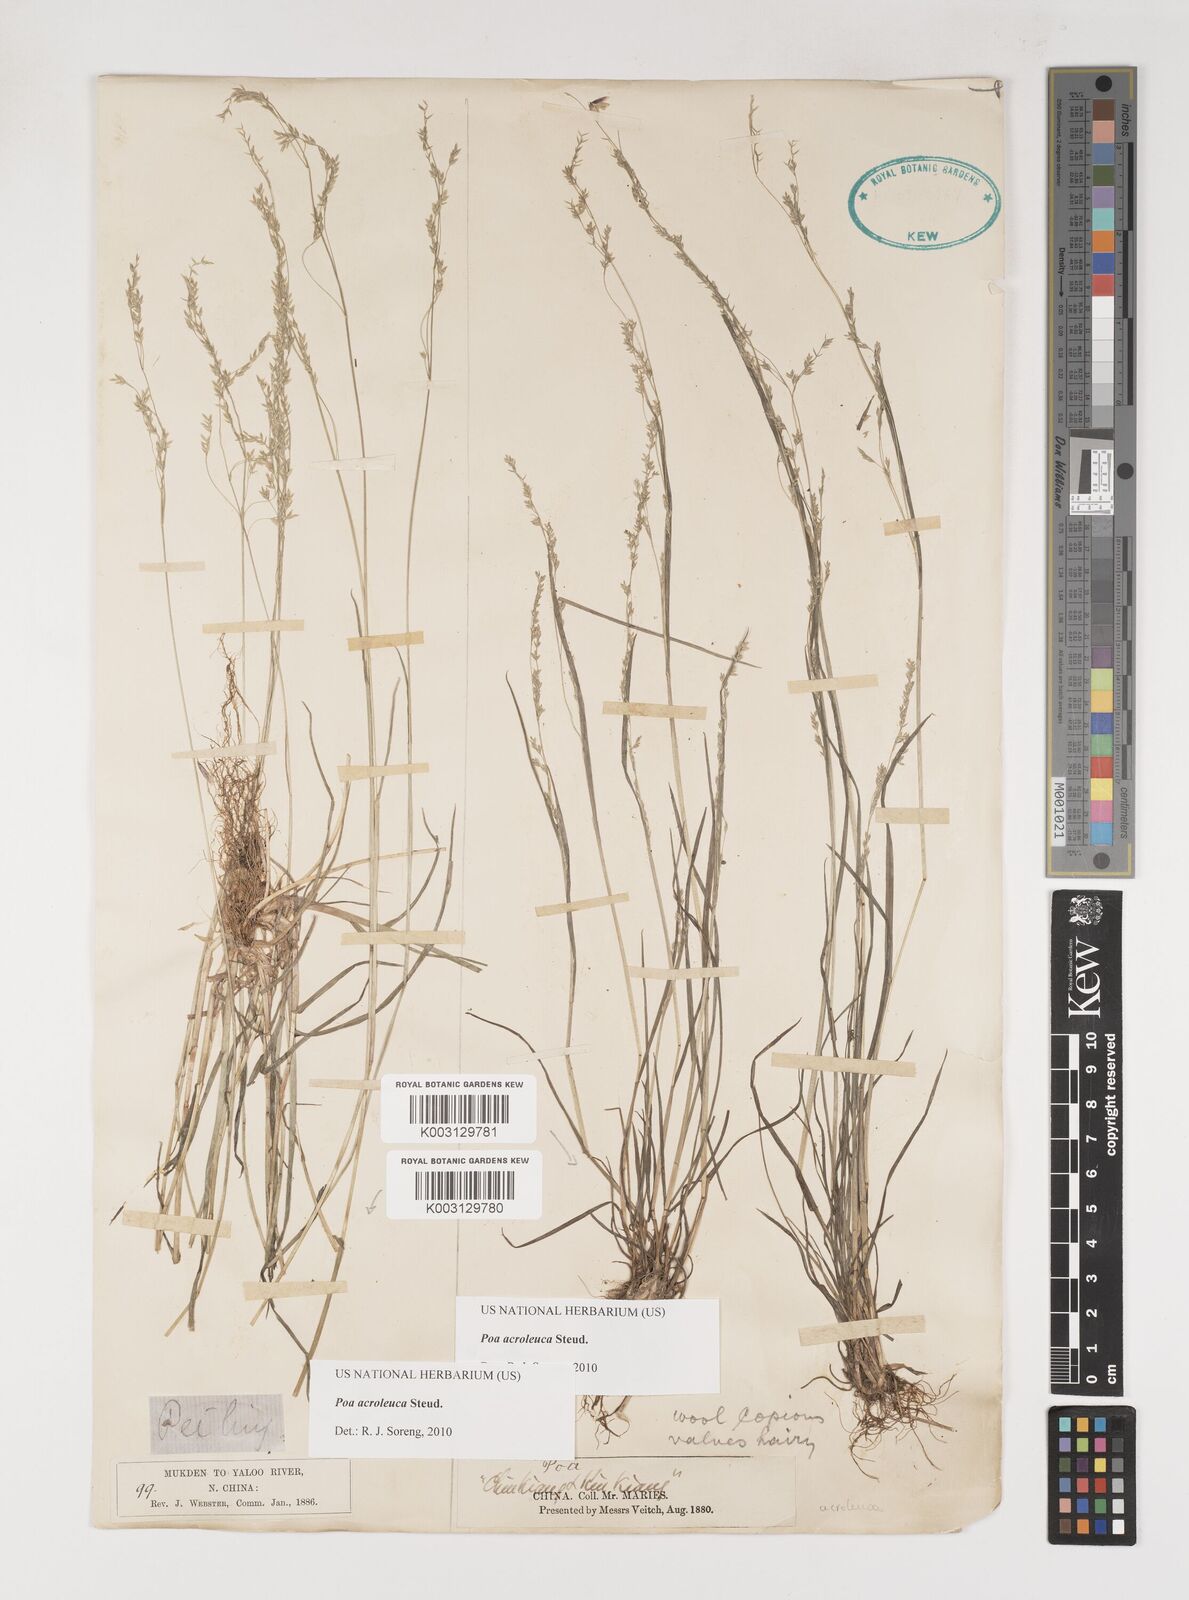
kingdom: Plantae
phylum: Tracheophyta
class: Liliopsida
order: Poales
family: Poaceae
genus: Poa
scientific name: Poa acroleuca
